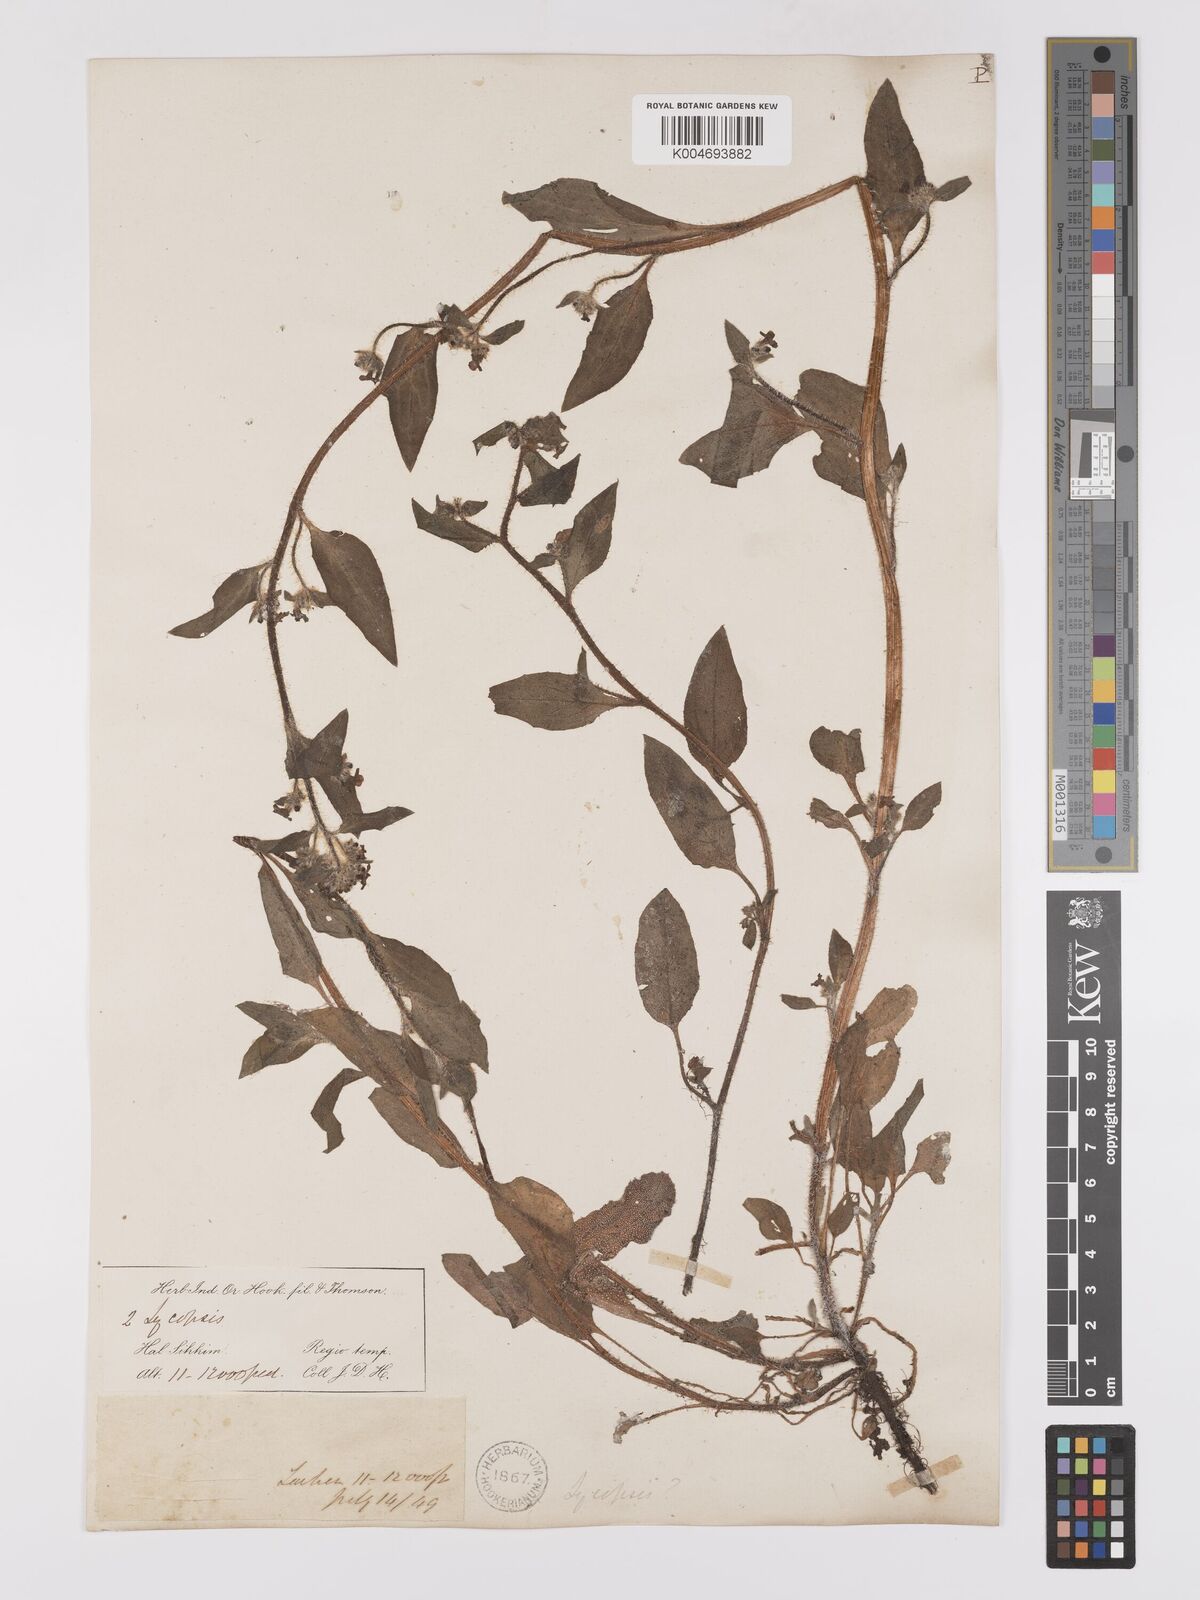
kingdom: Plantae
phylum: Tracheophyta
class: Magnoliopsida
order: Boraginales
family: Boraginaceae
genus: Microula
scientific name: Microula sikkimensis
